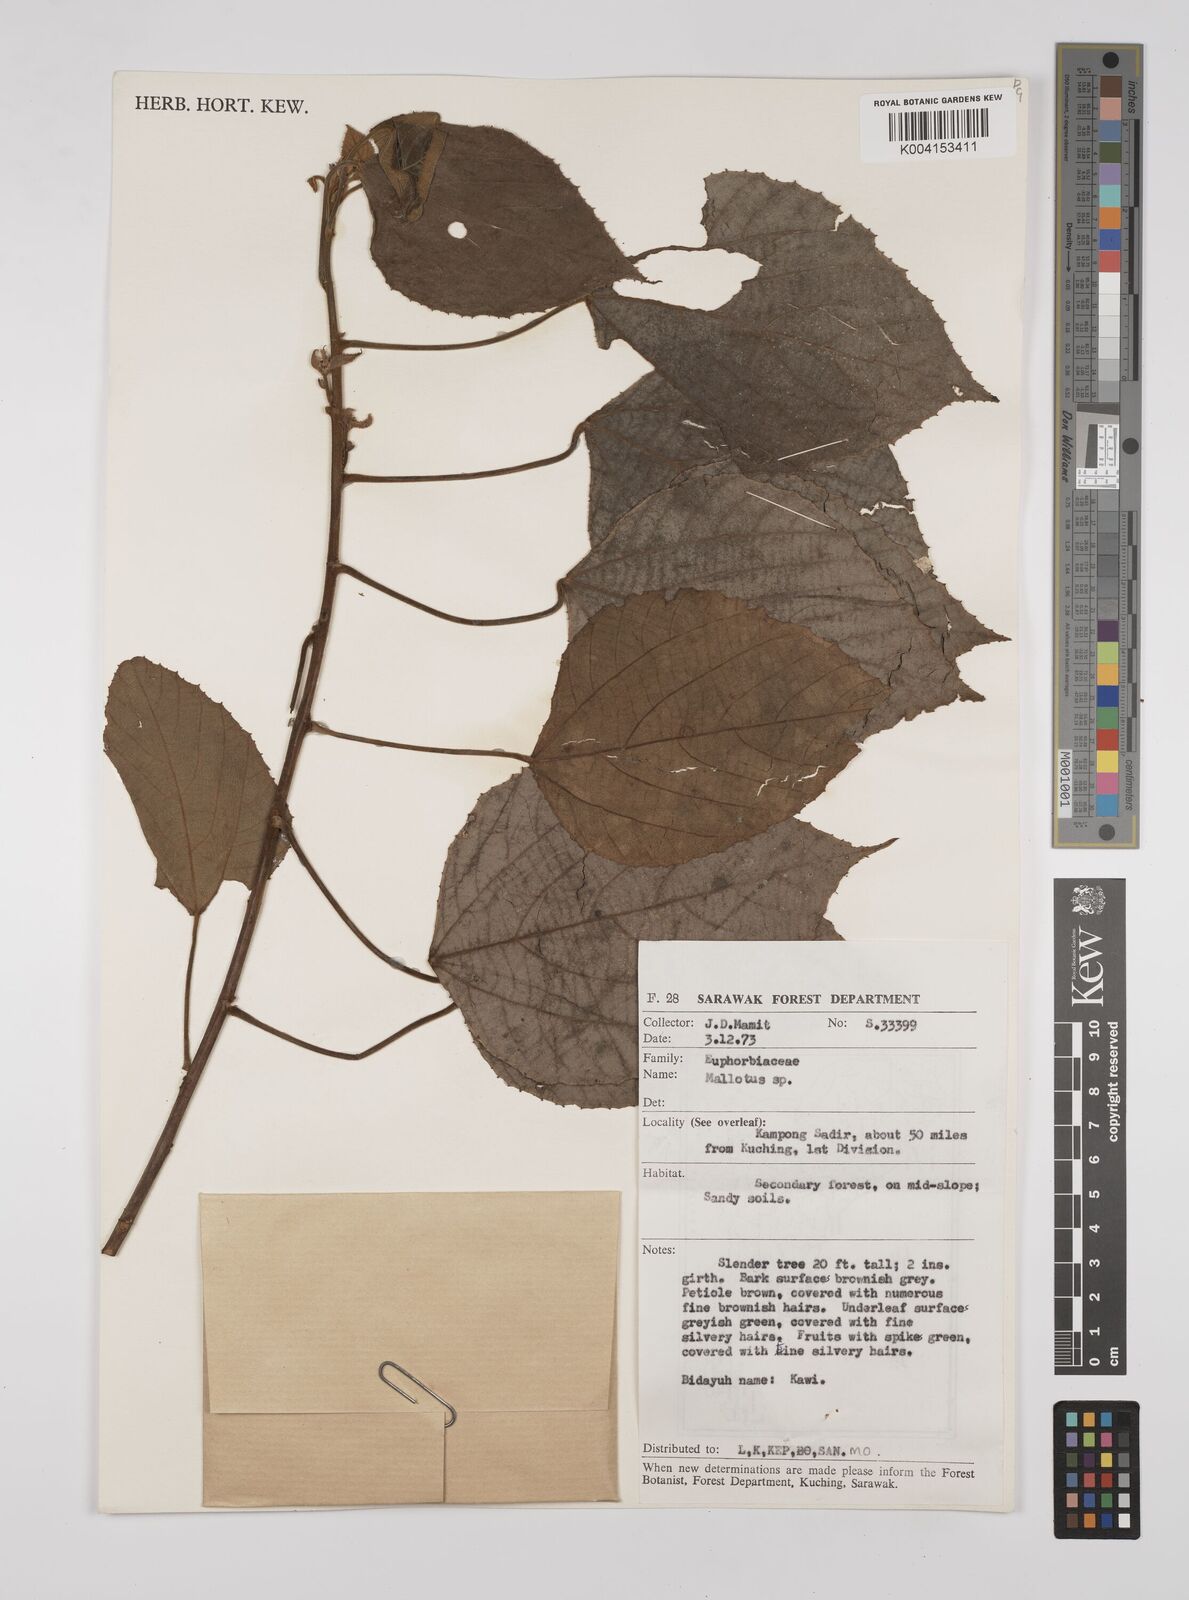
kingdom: Plantae
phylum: Tracheophyta
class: Magnoliopsida
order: Malpighiales
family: Euphorbiaceae
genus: Macaranga
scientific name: Macaranga trichocarpa
